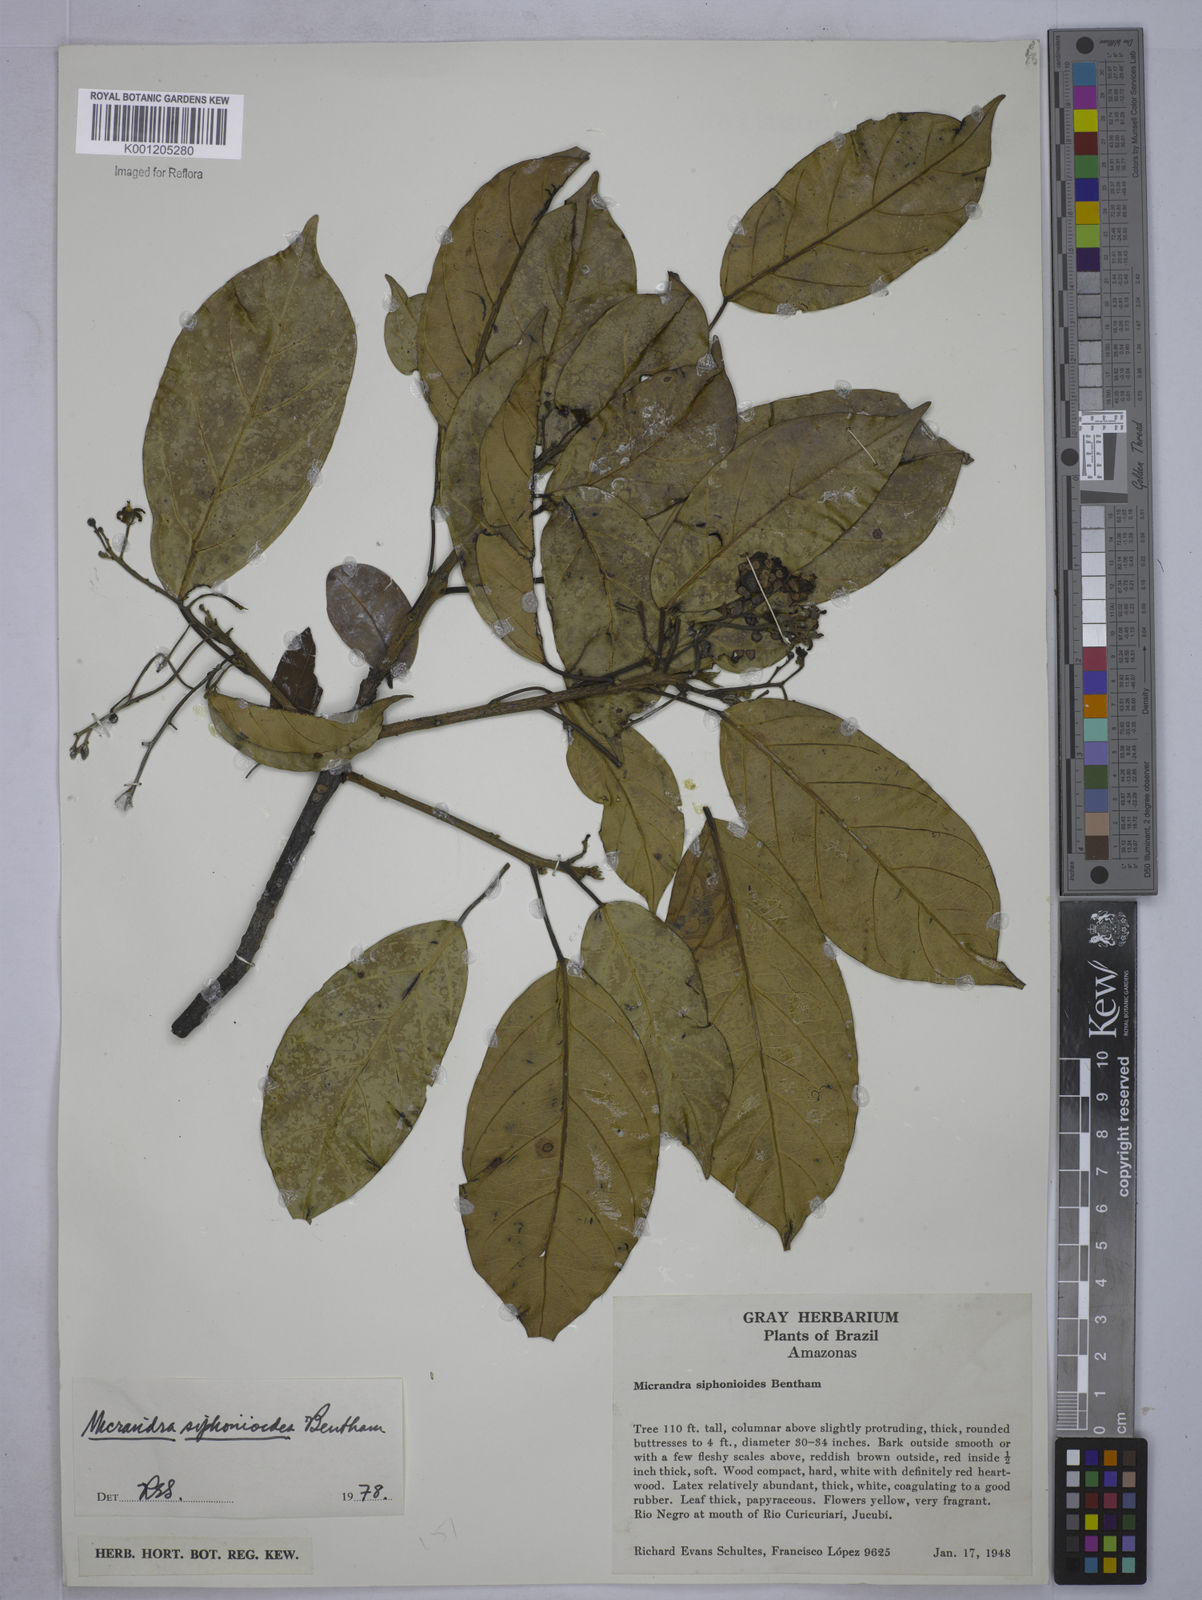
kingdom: Plantae
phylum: Tracheophyta
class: Magnoliopsida
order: Malpighiales
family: Euphorbiaceae
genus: Micrandra
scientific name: Micrandra siphonioides
